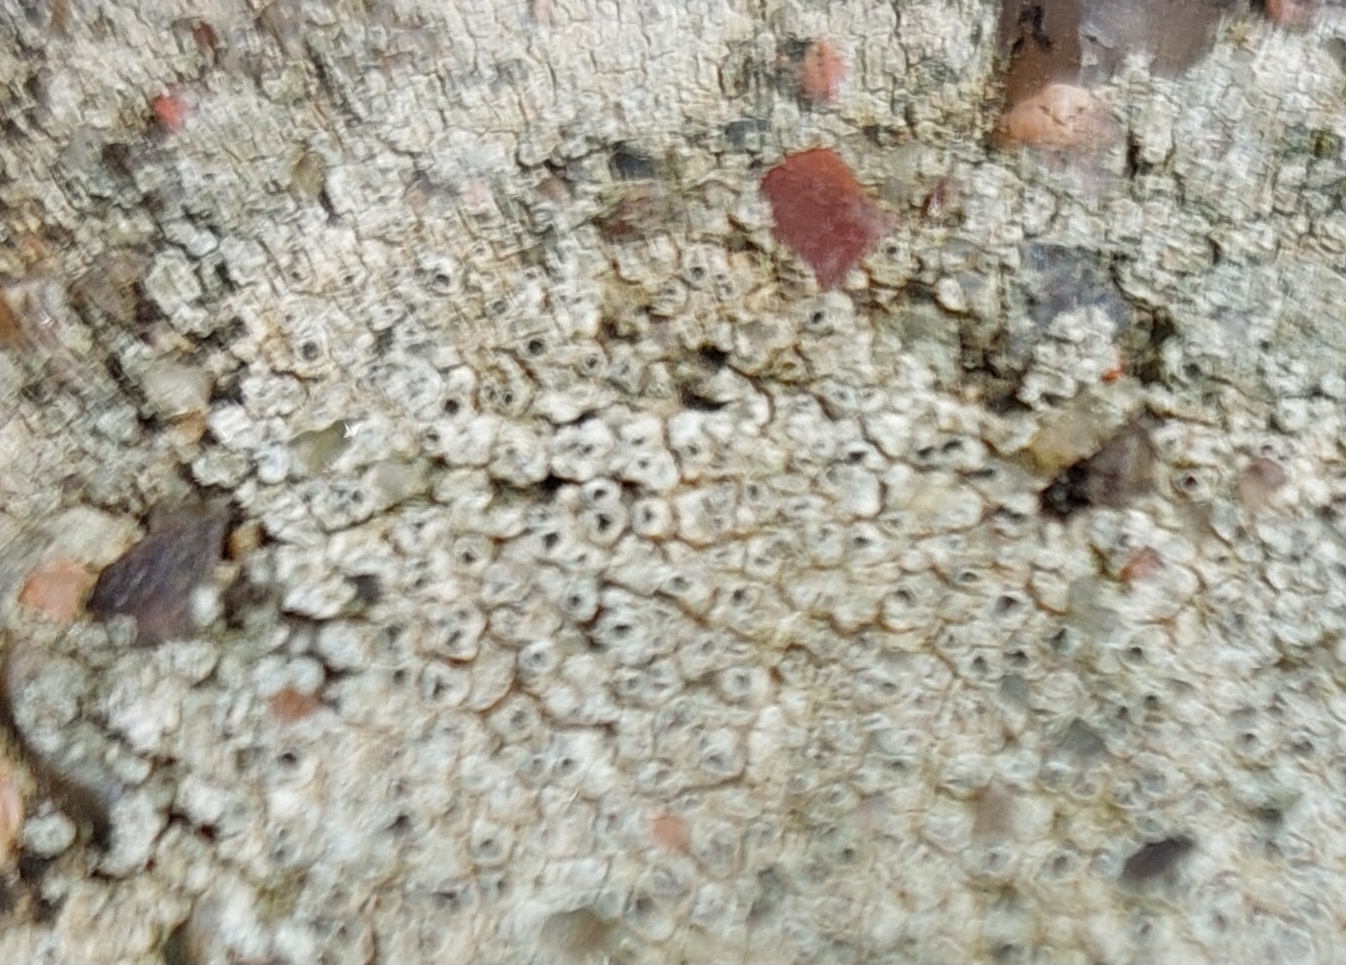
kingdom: Fungi
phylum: Ascomycota
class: Lecanoromycetes
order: Pertusariales
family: Megasporaceae
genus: Circinaria
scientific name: Circinaria contorta
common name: Indviklet hulskivelav
